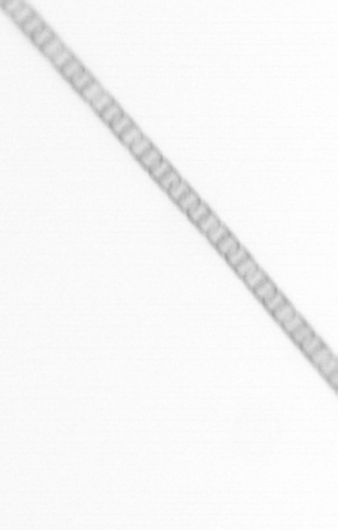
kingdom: Chromista
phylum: Ochrophyta
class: Bacillariophyceae
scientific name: Bacillariophyceae
